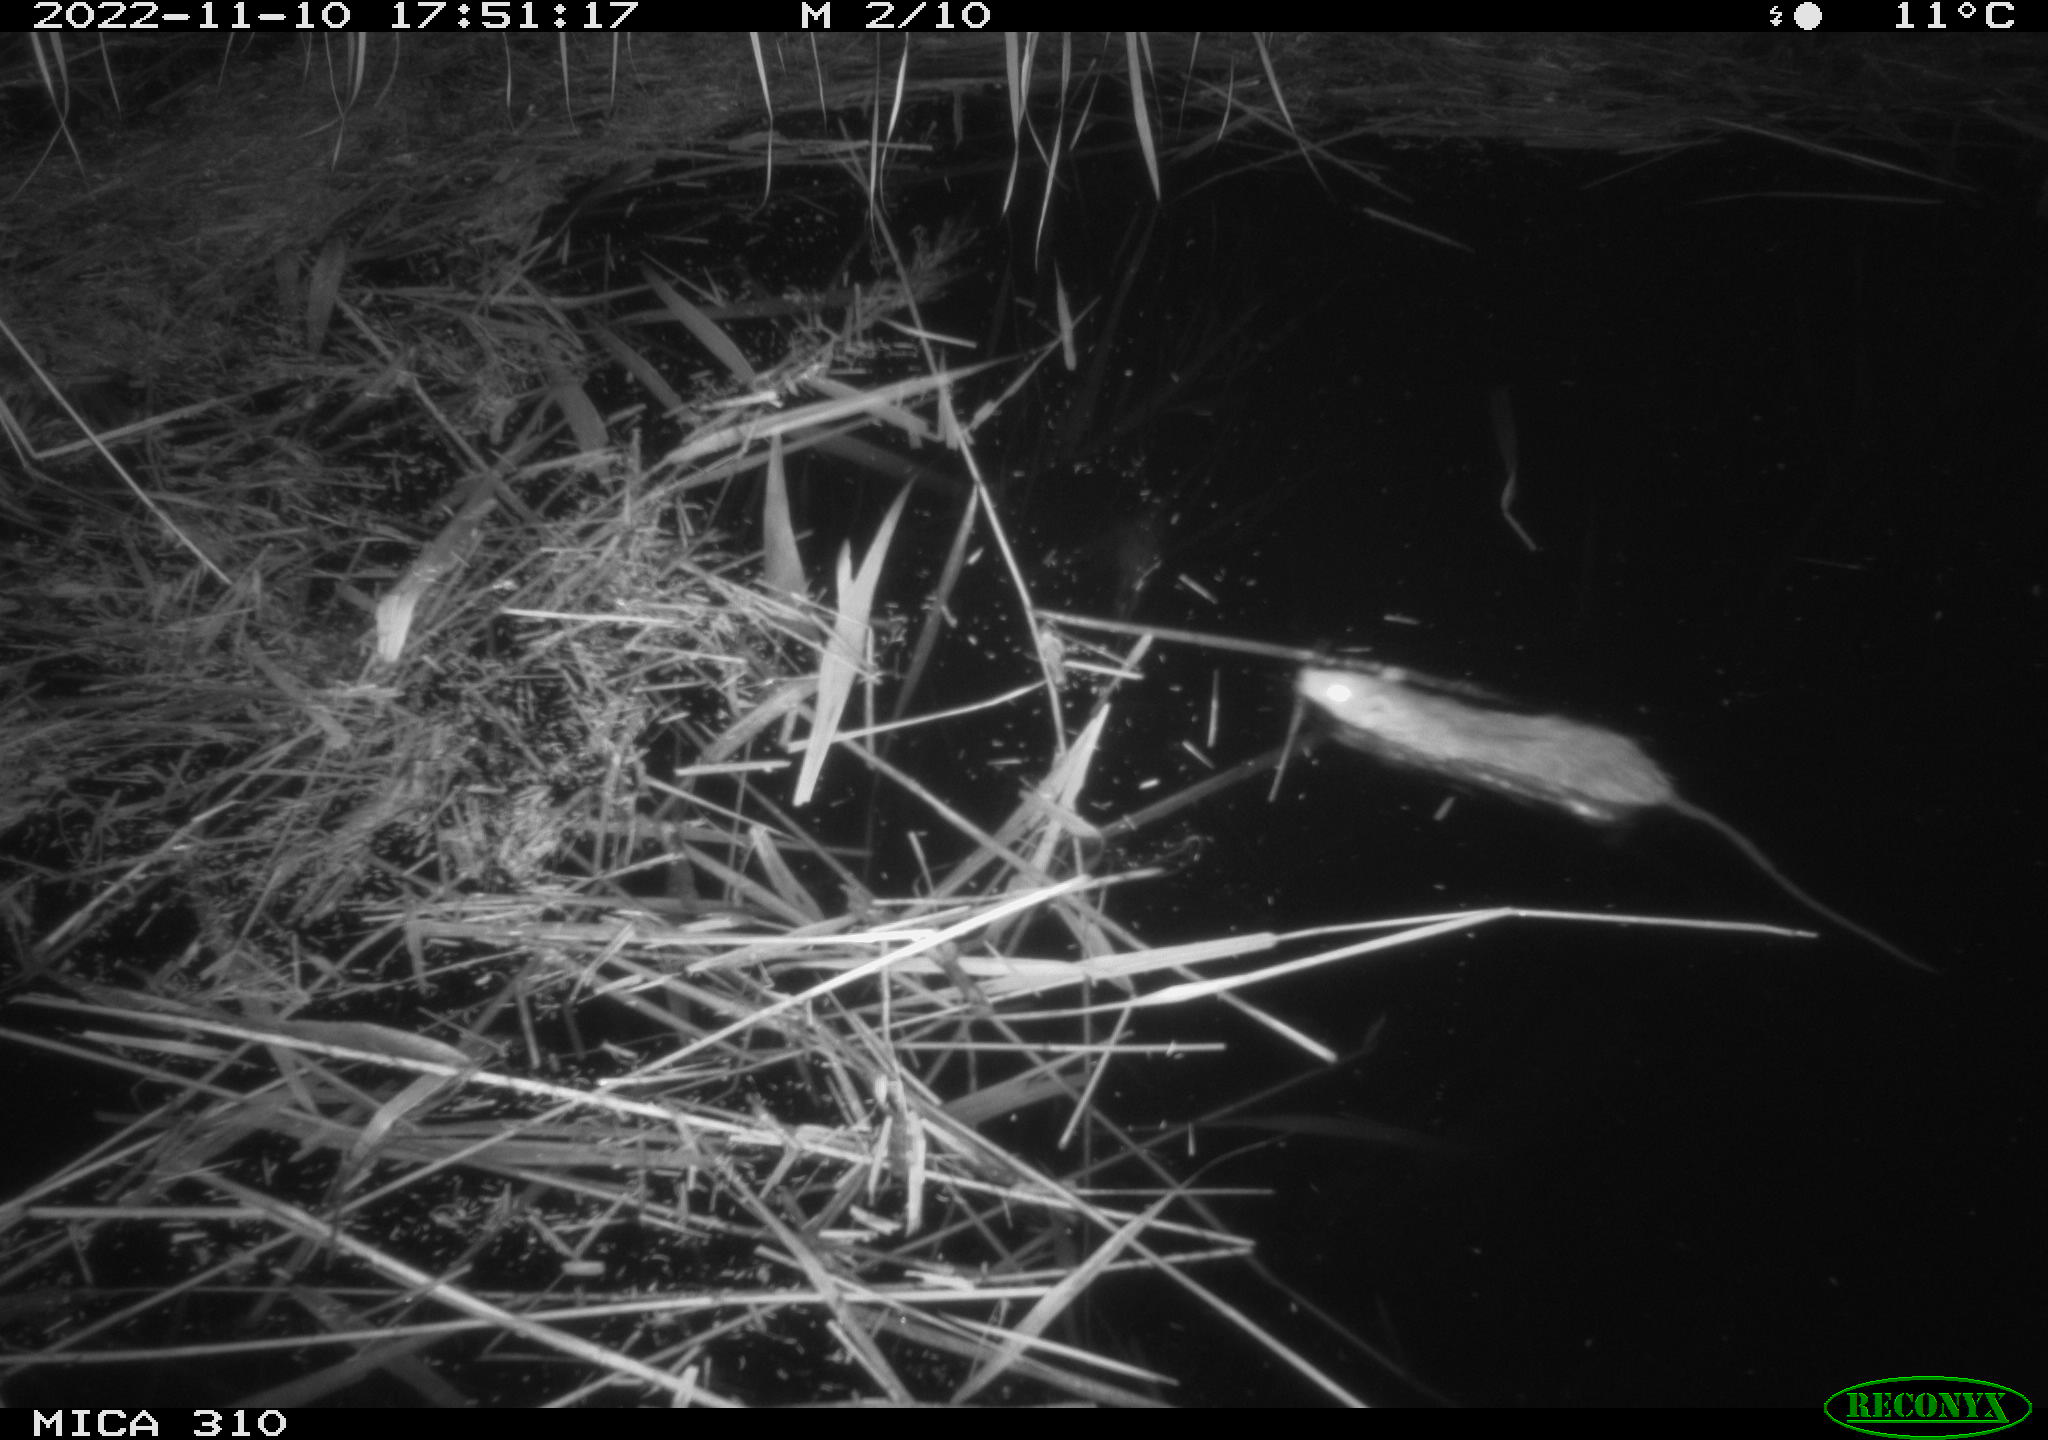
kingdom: Animalia
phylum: Chordata
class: Mammalia
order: Rodentia
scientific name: Rodentia
